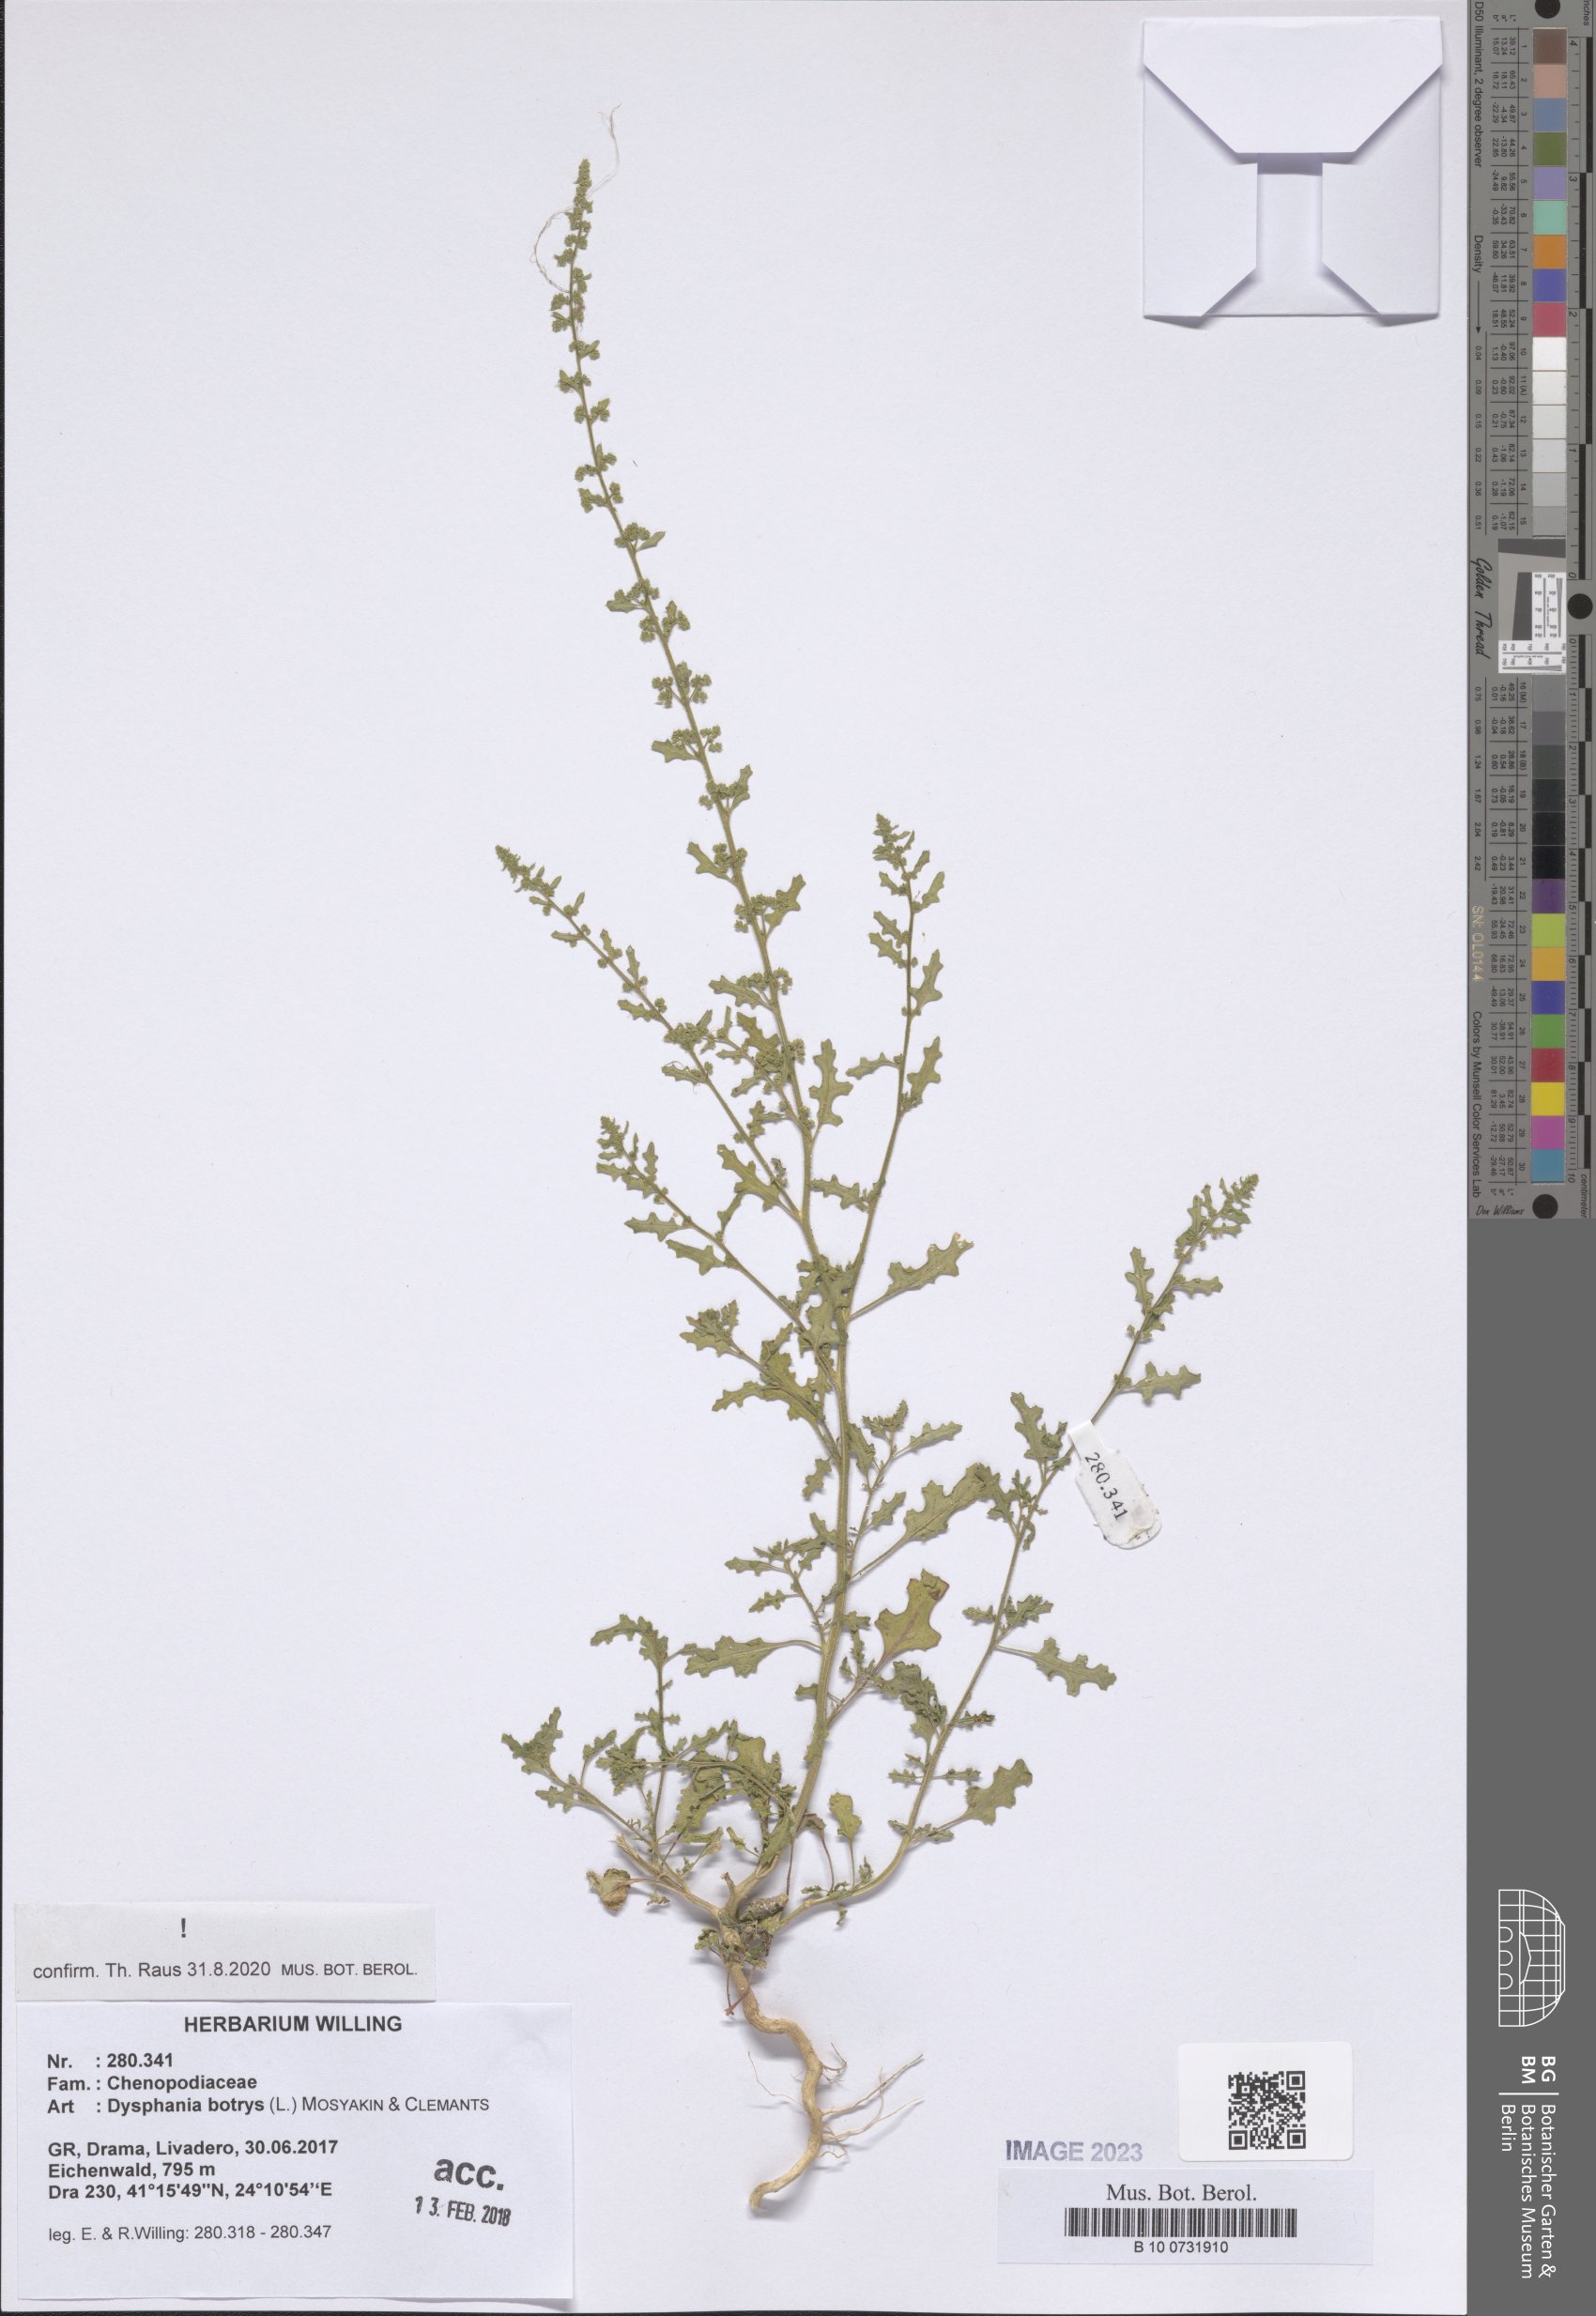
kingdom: Plantae
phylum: Tracheophyta
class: Magnoliopsida
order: Caryophyllales
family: Amaranthaceae
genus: Dysphania
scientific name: Dysphania botrys
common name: Feather-geranium
